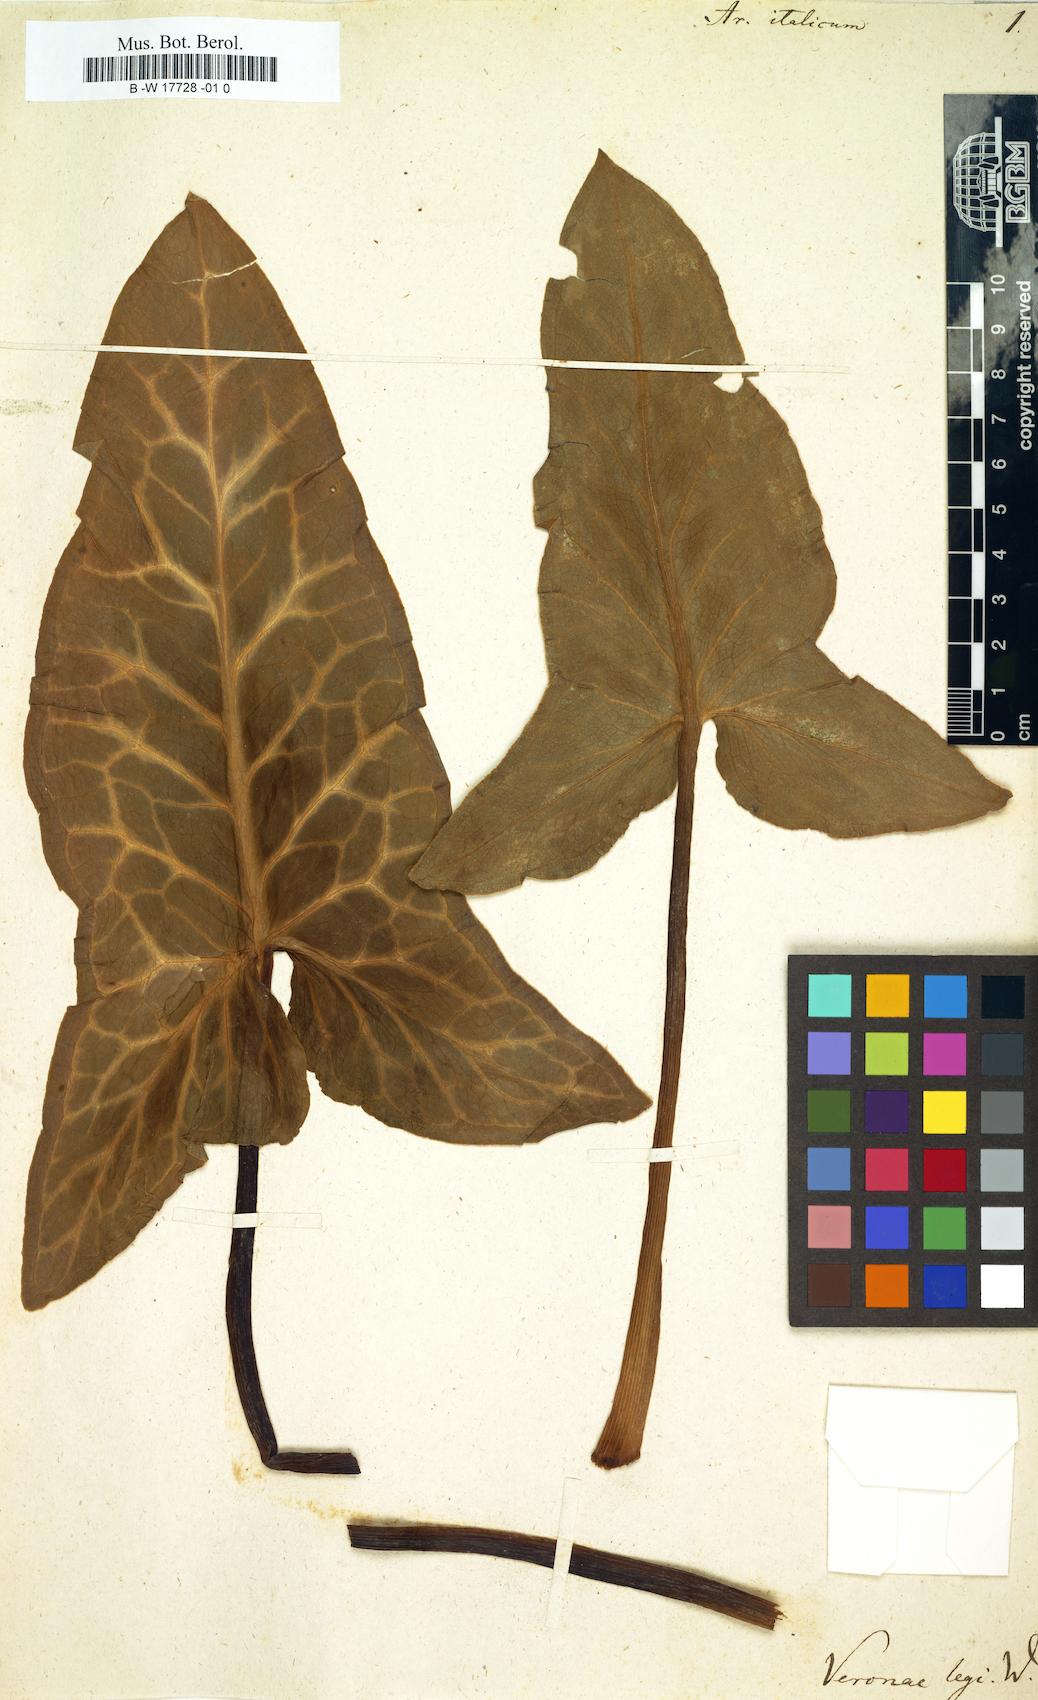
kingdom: Plantae
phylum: Tracheophyta
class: Liliopsida
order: Alismatales
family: Araceae
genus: Arum
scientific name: Arum italicum
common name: Italian lords-and-ladies
